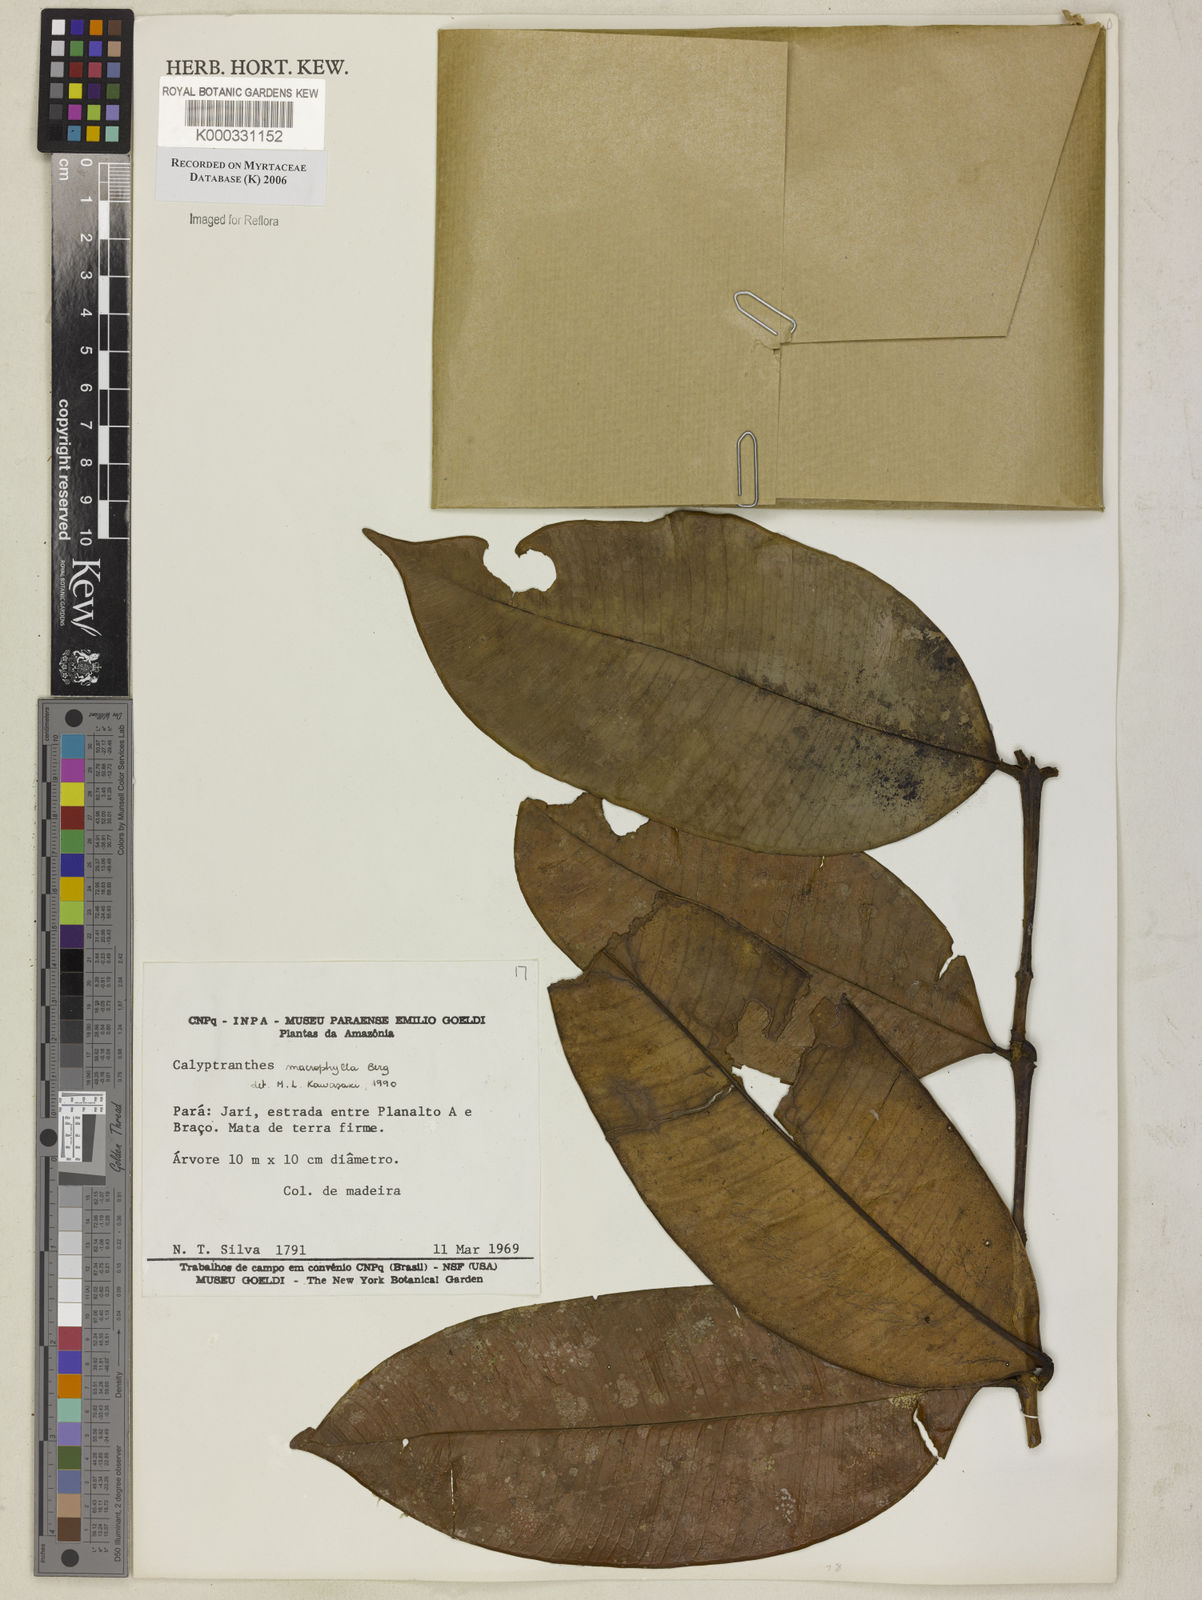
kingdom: Plantae
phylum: Tracheophyta
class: Magnoliopsida
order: Myrtales
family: Myrtaceae
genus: Myrcia
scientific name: Myrcia neomacrophylla
